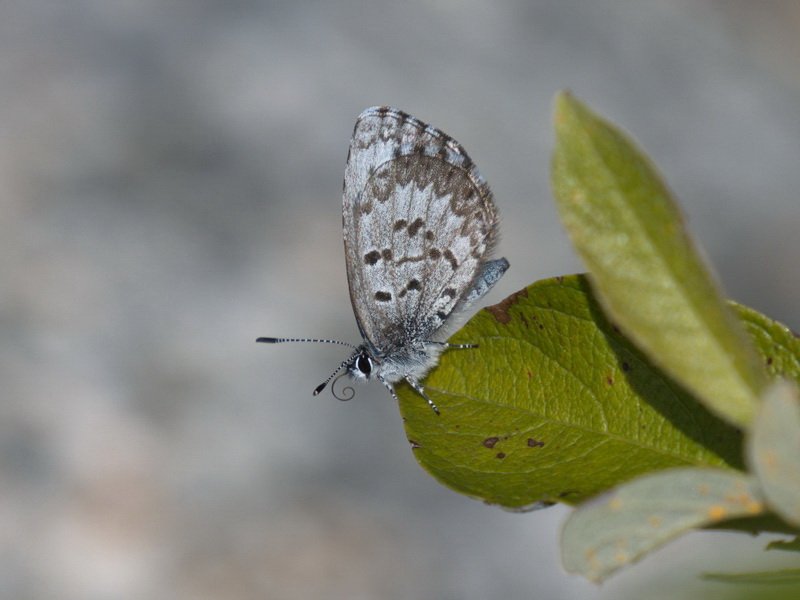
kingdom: Animalia
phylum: Arthropoda
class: Insecta
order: Lepidoptera
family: Lycaenidae
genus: Celastrina
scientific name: Celastrina lucia
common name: Northern Spring Azure
